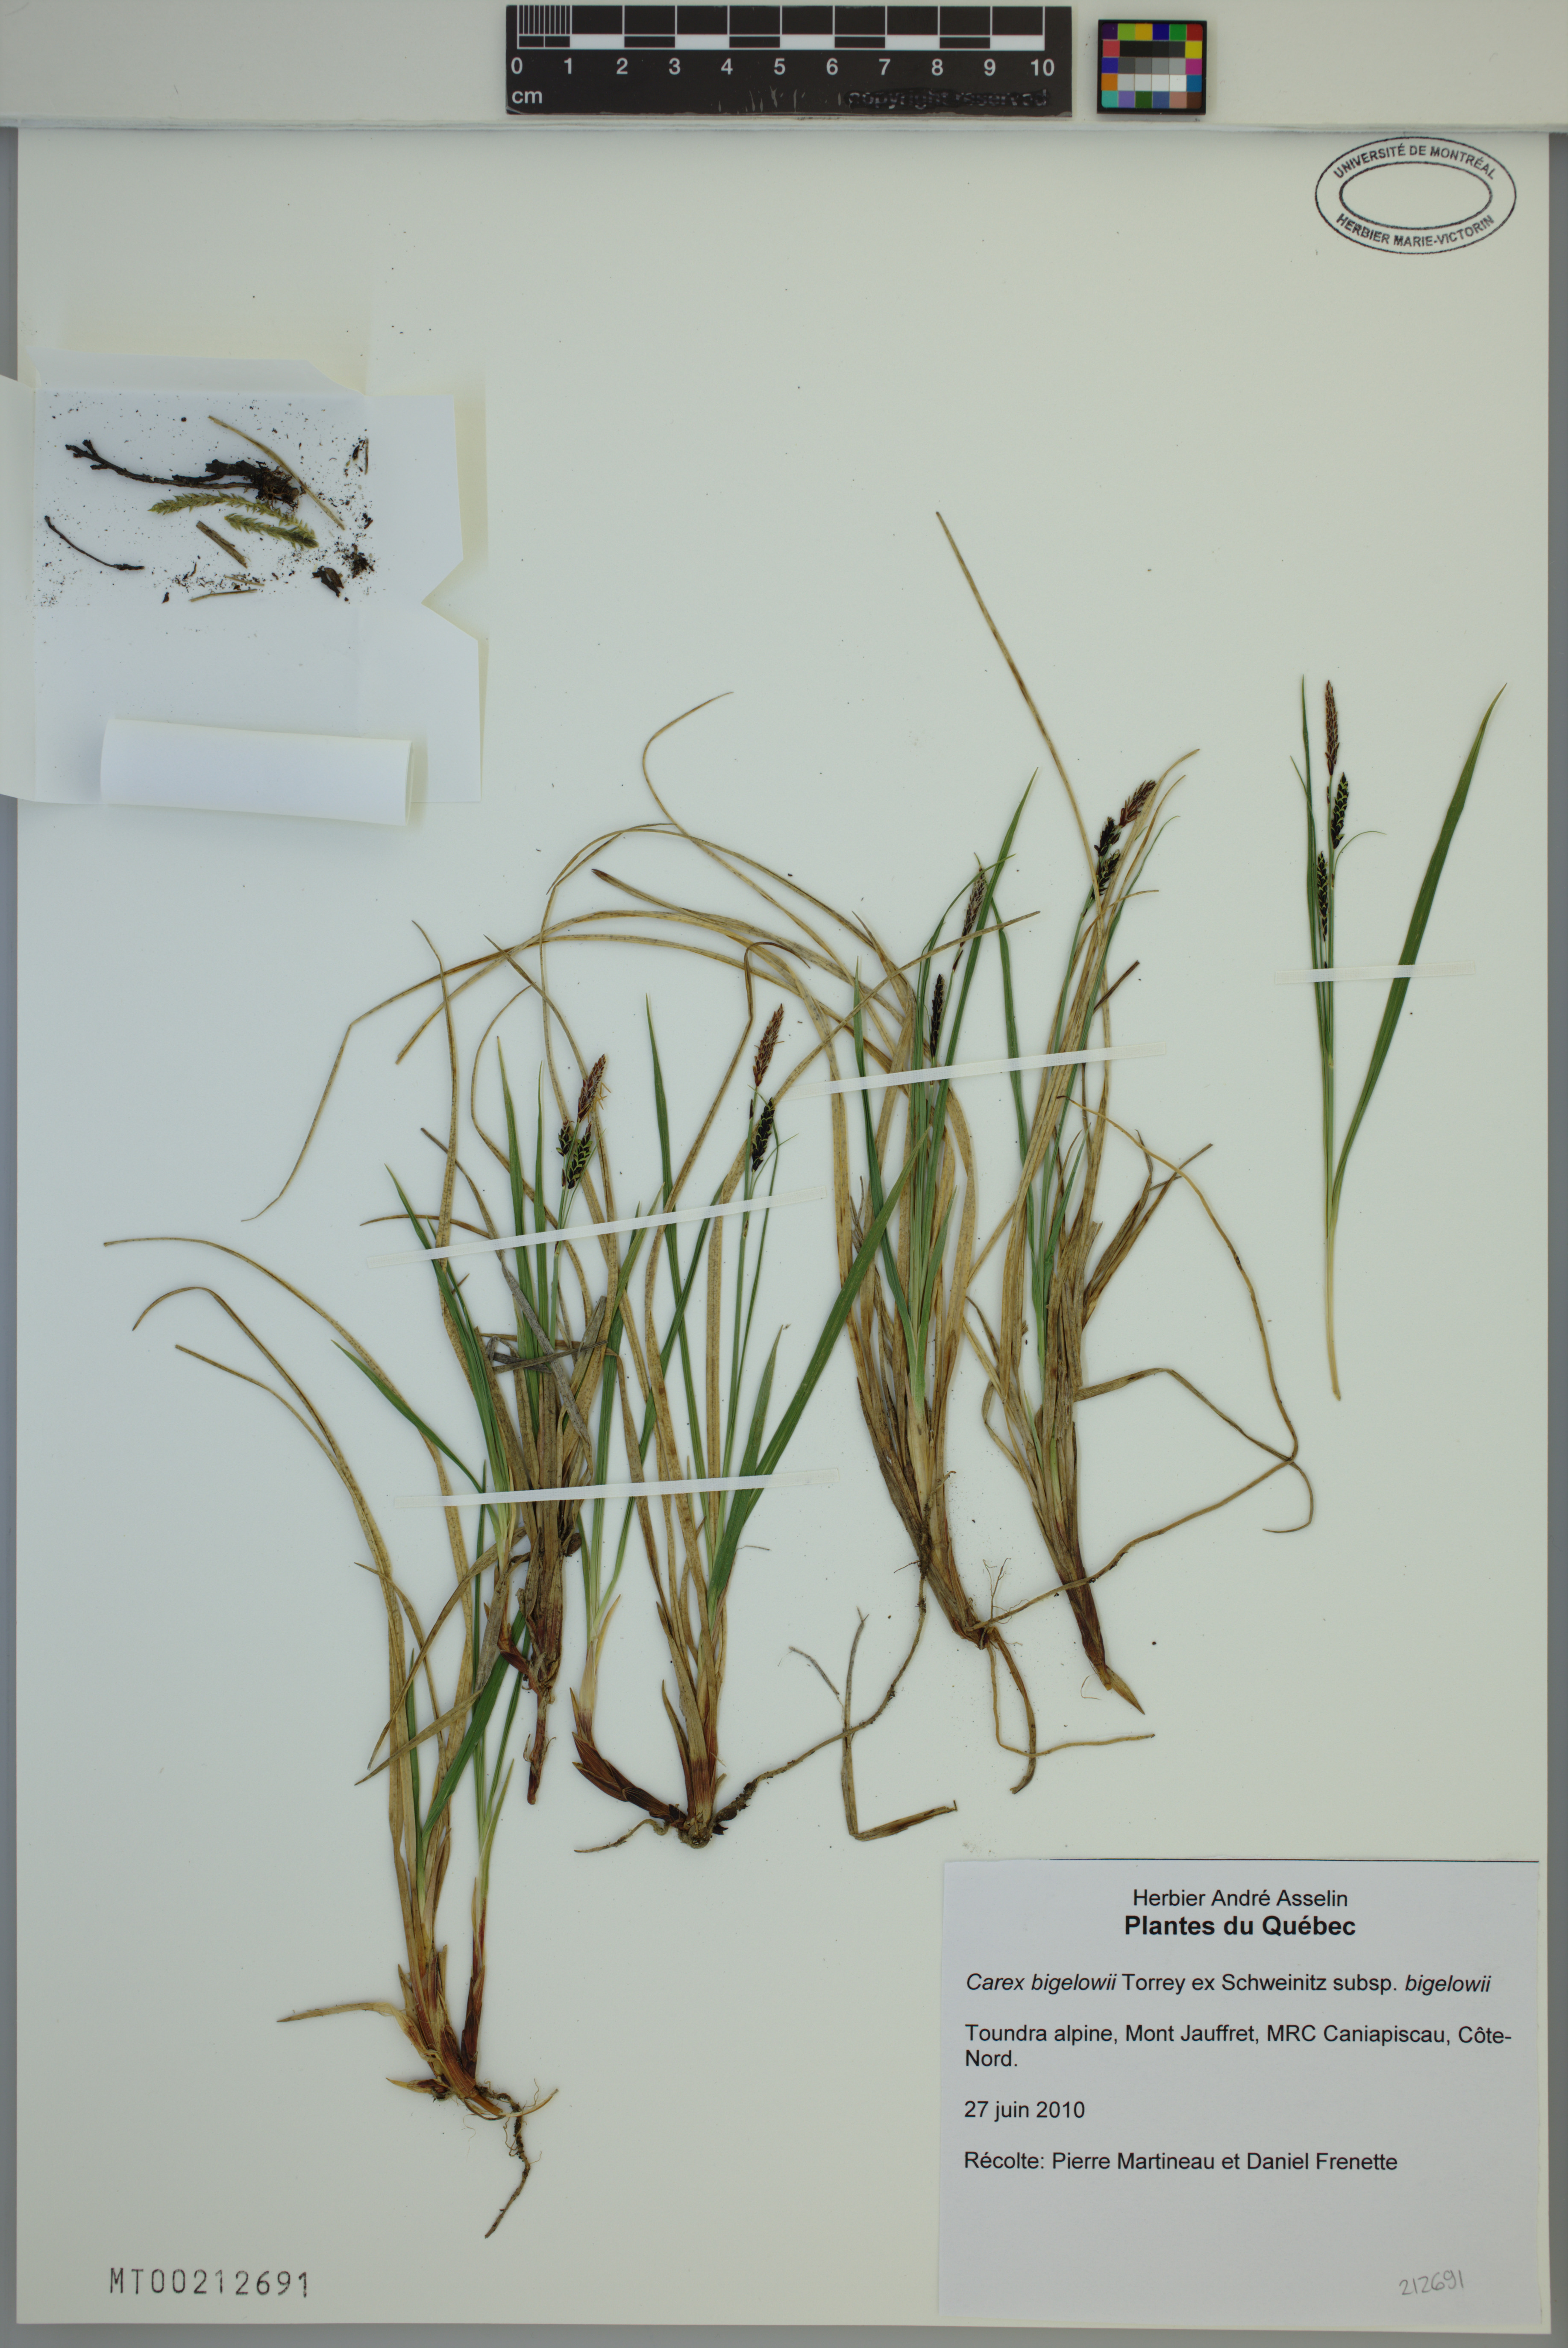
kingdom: Plantae
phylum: Tracheophyta
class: Liliopsida
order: Poales
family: Cyperaceae
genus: Carex
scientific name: Carex bigelowii
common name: Stiff sedge
